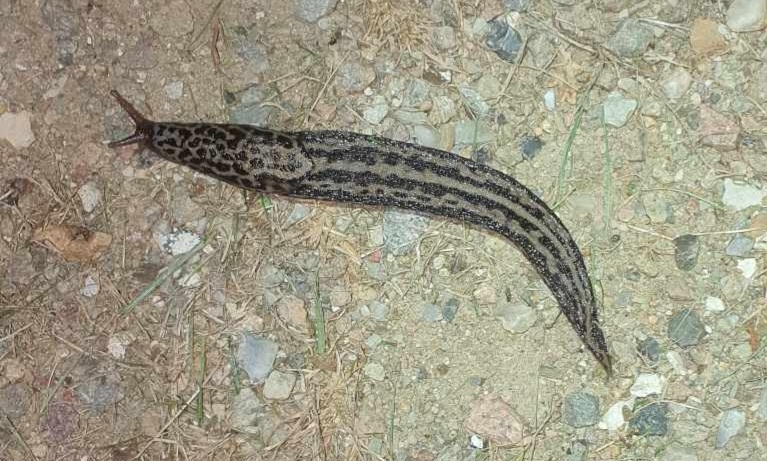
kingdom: Animalia
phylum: Mollusca
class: Gastropoda
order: Stylommatophora
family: Limacidae
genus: Limax
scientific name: Limax maximus
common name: Pantersnegl
